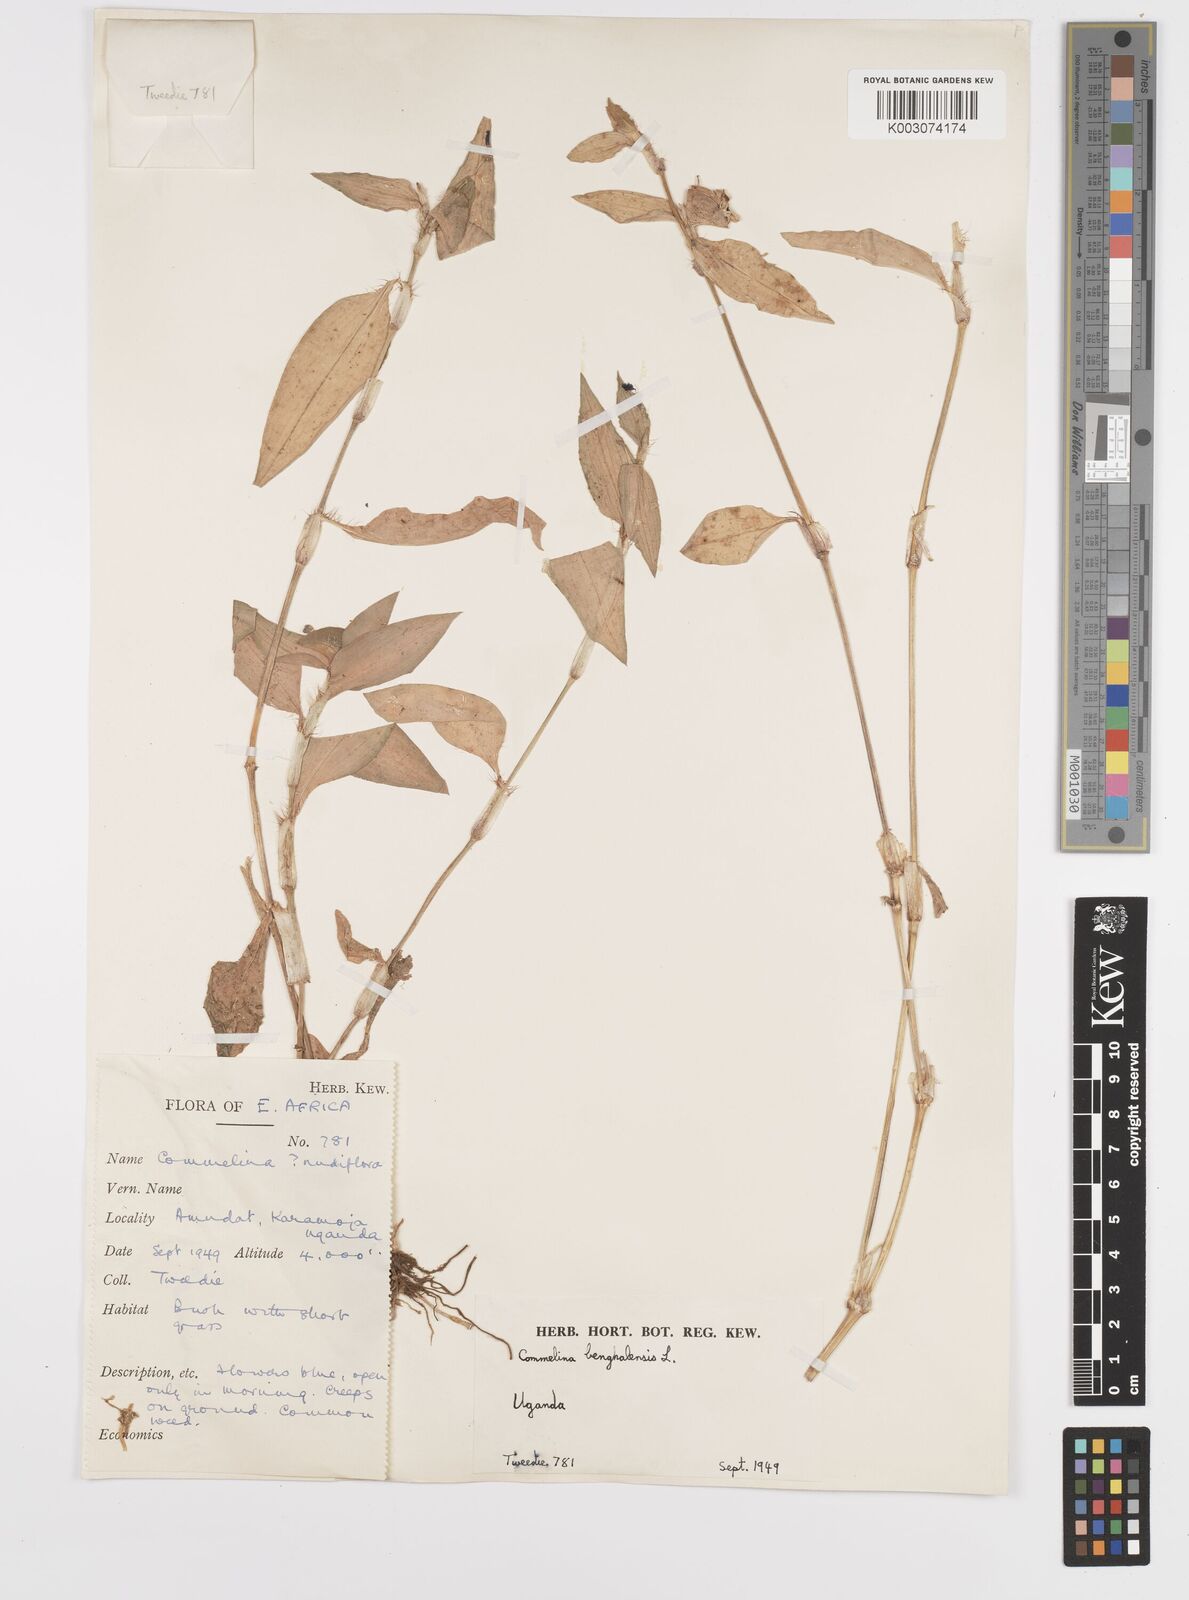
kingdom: Plantae
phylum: Tracheophyta
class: Liliopsida
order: Commelinales
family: Commelinaceae
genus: Commelina
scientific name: Commelina benghalensis
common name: Jio
